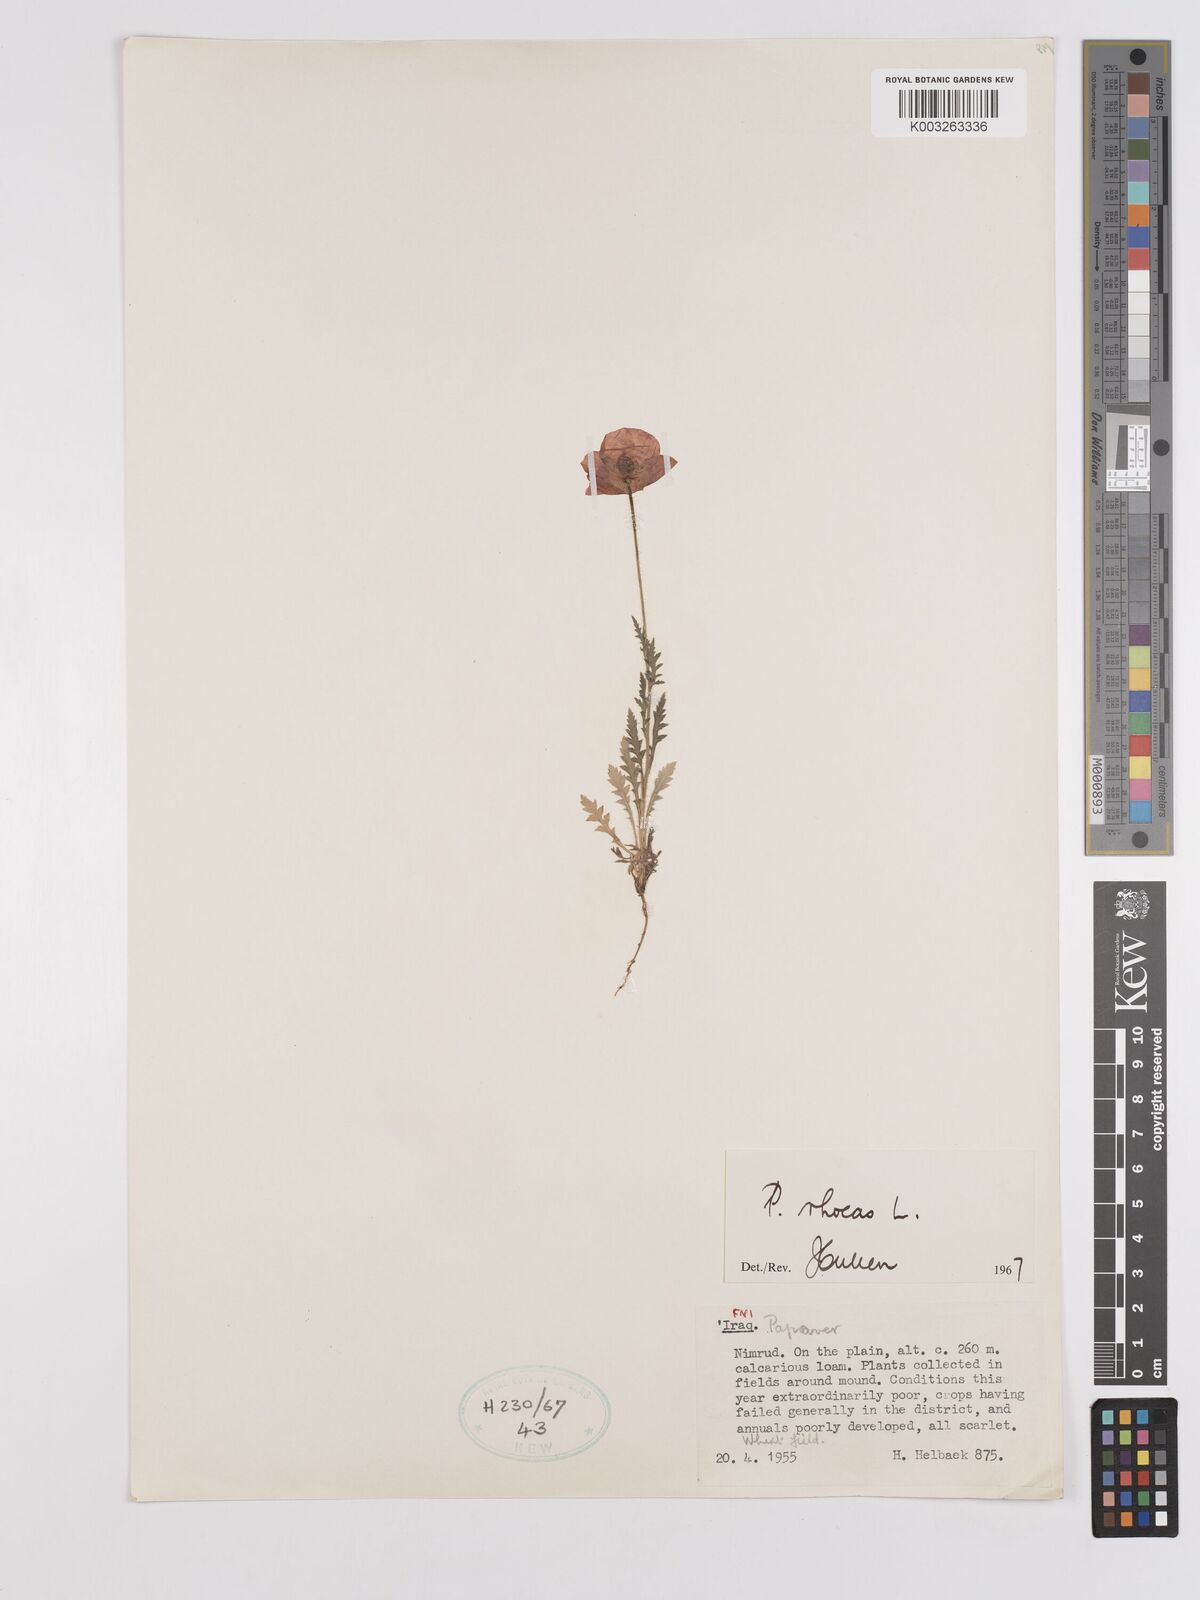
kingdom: Plantae
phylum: Tracheophyta
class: Magnoliopsida
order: Ranunculales
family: Papaveraceae
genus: Papaver
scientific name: Papaver rhoeas
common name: Corn poppy
